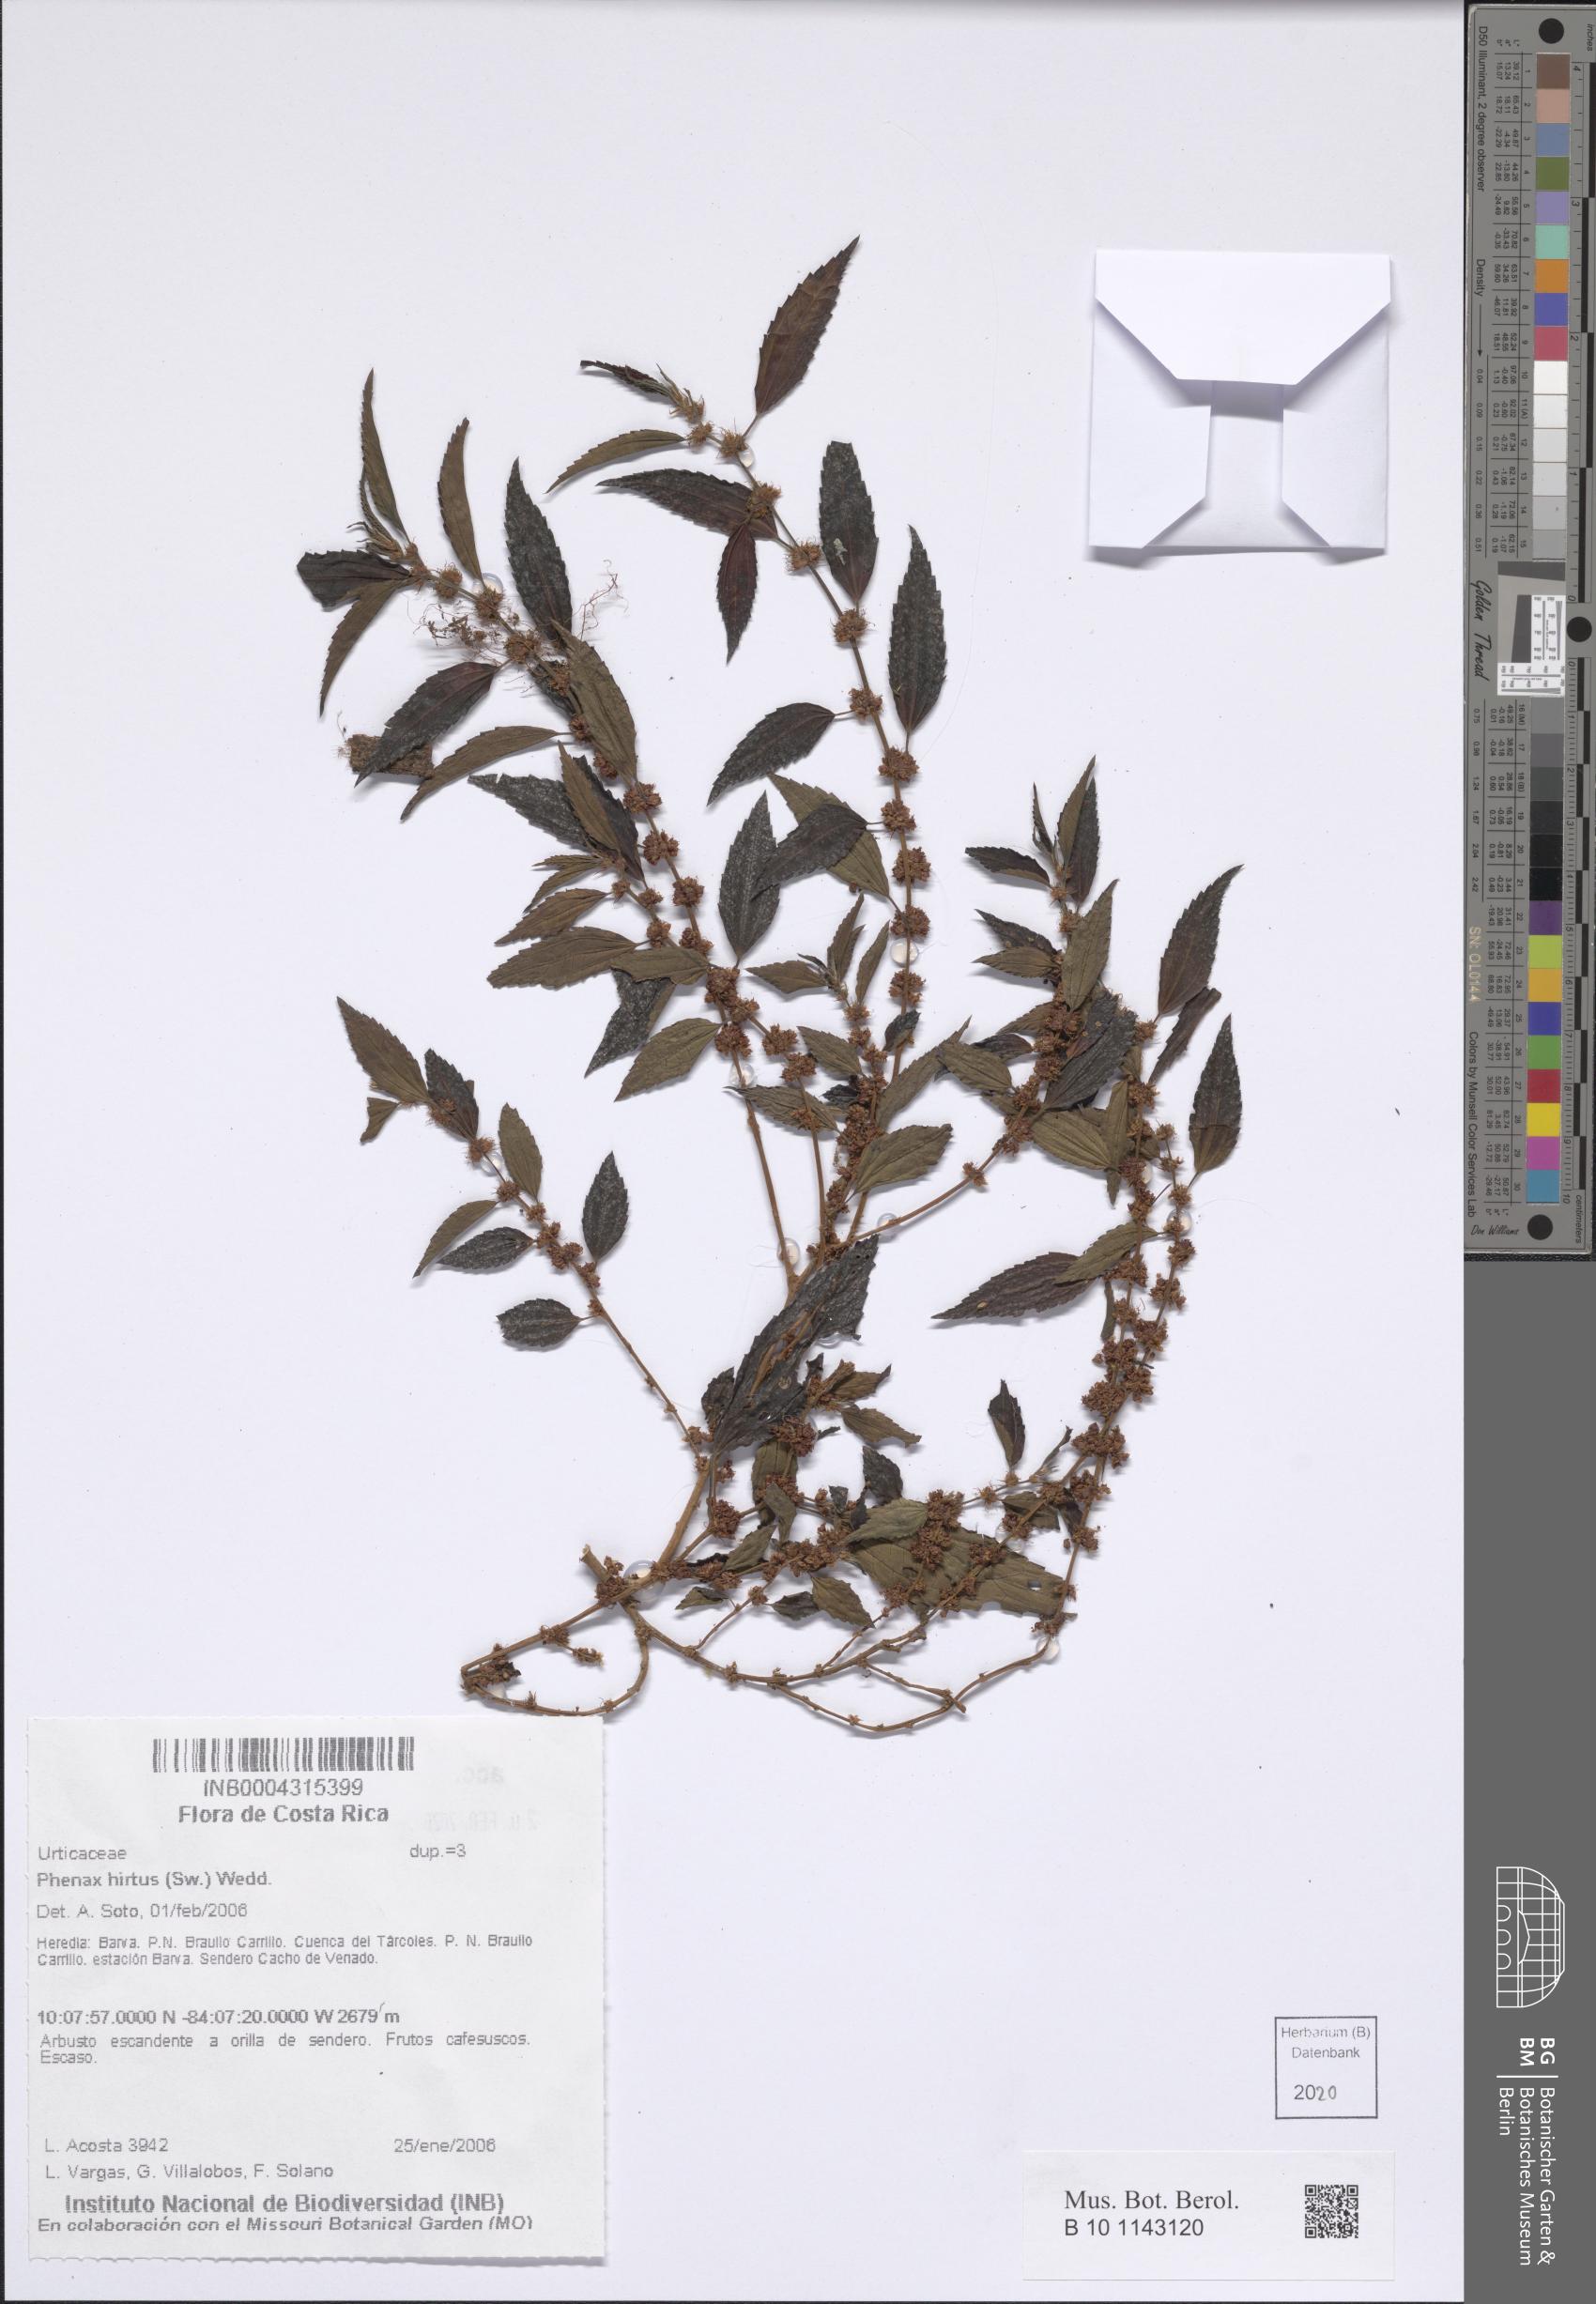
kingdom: Plantae
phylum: Tracheophyta
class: Magnoliopsida
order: Rosales
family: Urticaceae
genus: Phenax
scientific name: Phenax hirtus
